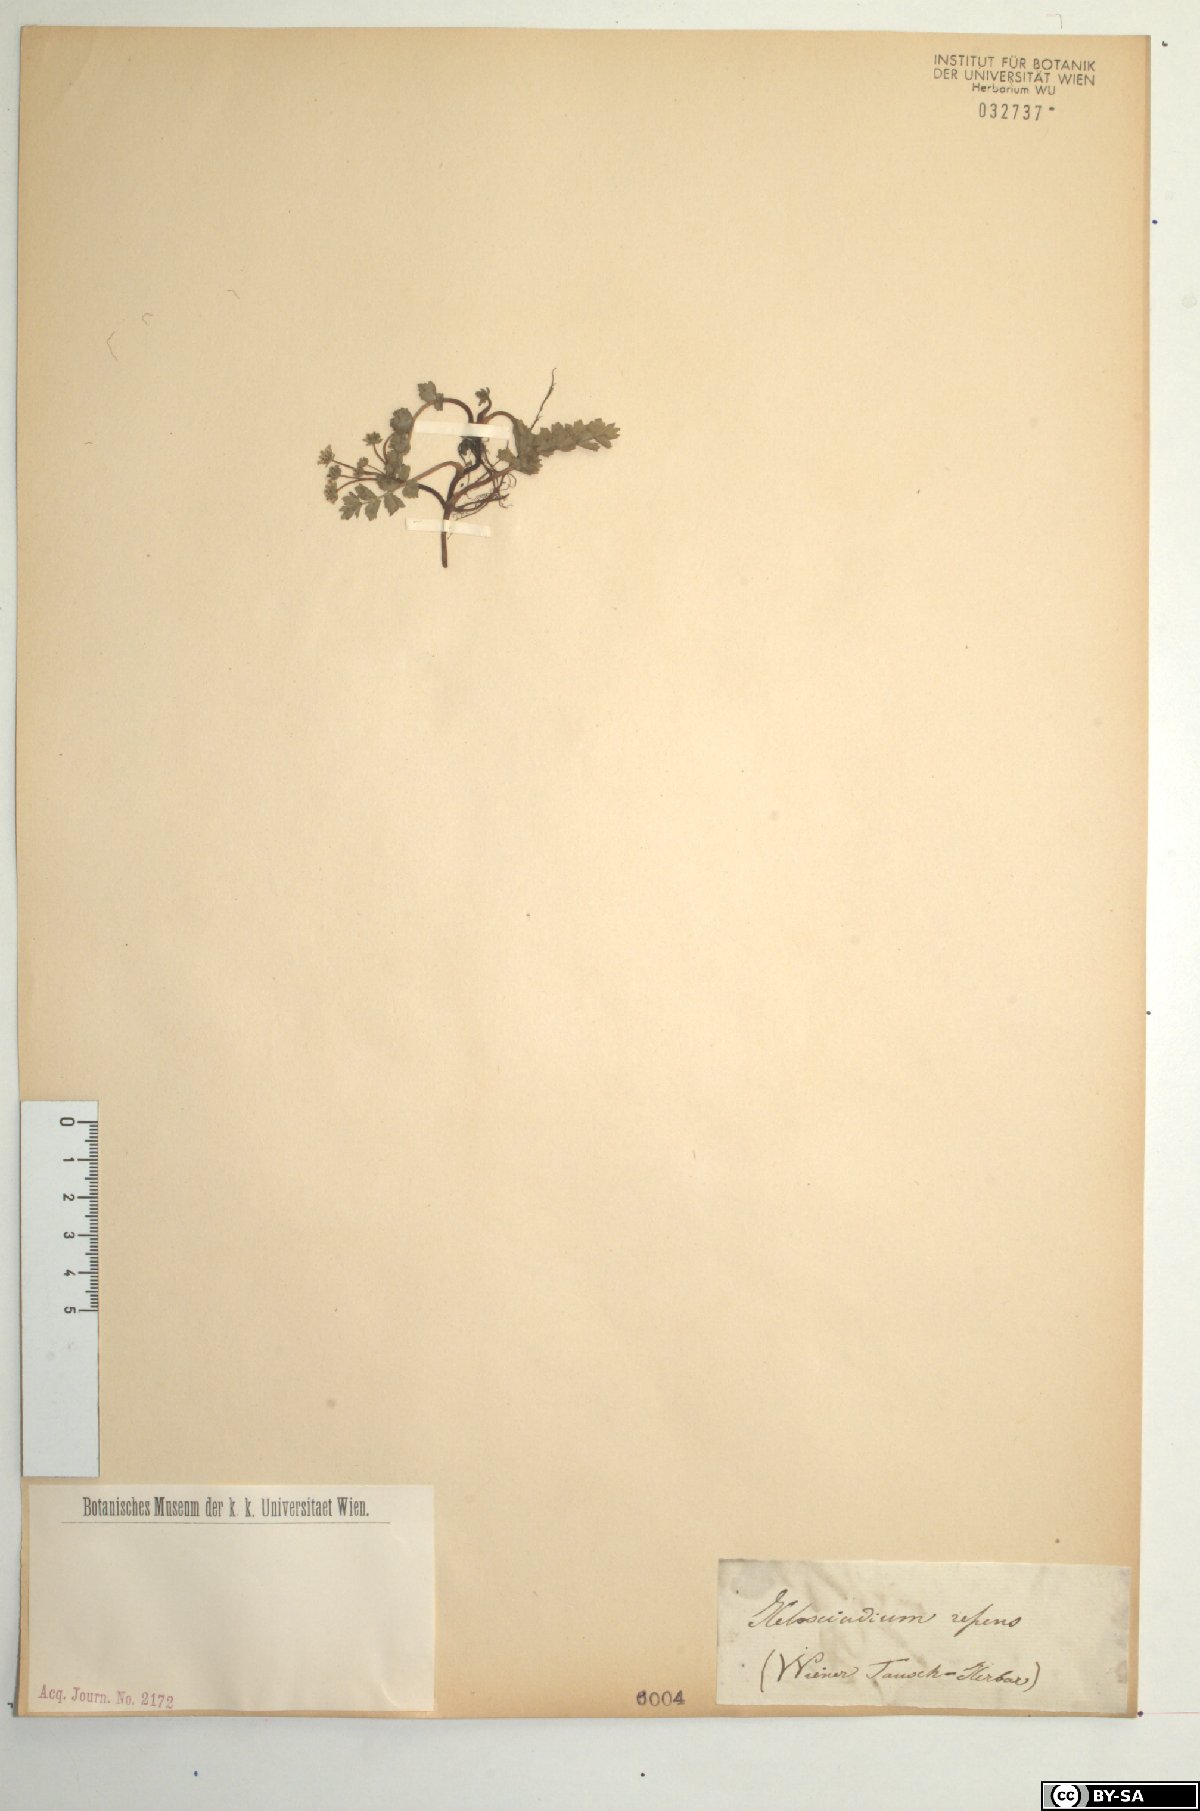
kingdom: Plantae
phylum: Tracheophyta
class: Magnoliopsida
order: Apiales
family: Apiaceae
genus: Helosciadium
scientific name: Helosciadium repens
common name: Creeping marshwort
